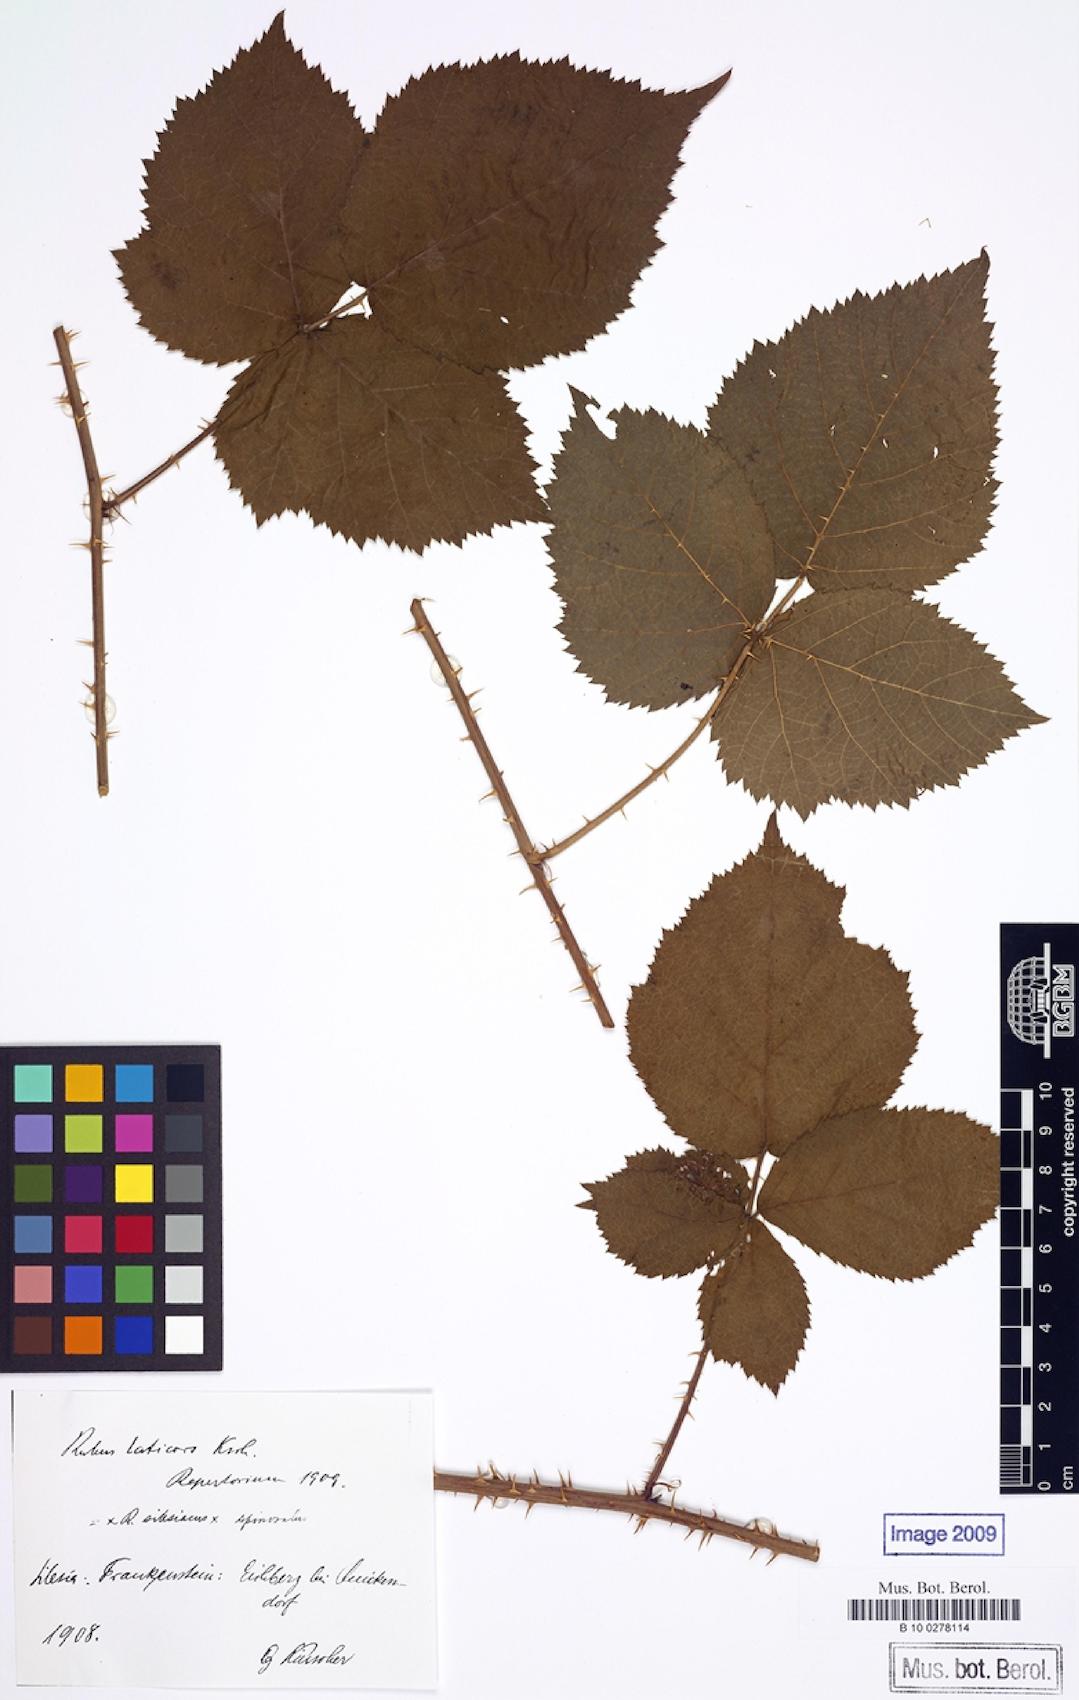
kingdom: Plantae
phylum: Tracheophyta
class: Magnoliopsida
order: Rosales
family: Rosaceae
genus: Rubus
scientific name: Rubus laticors
